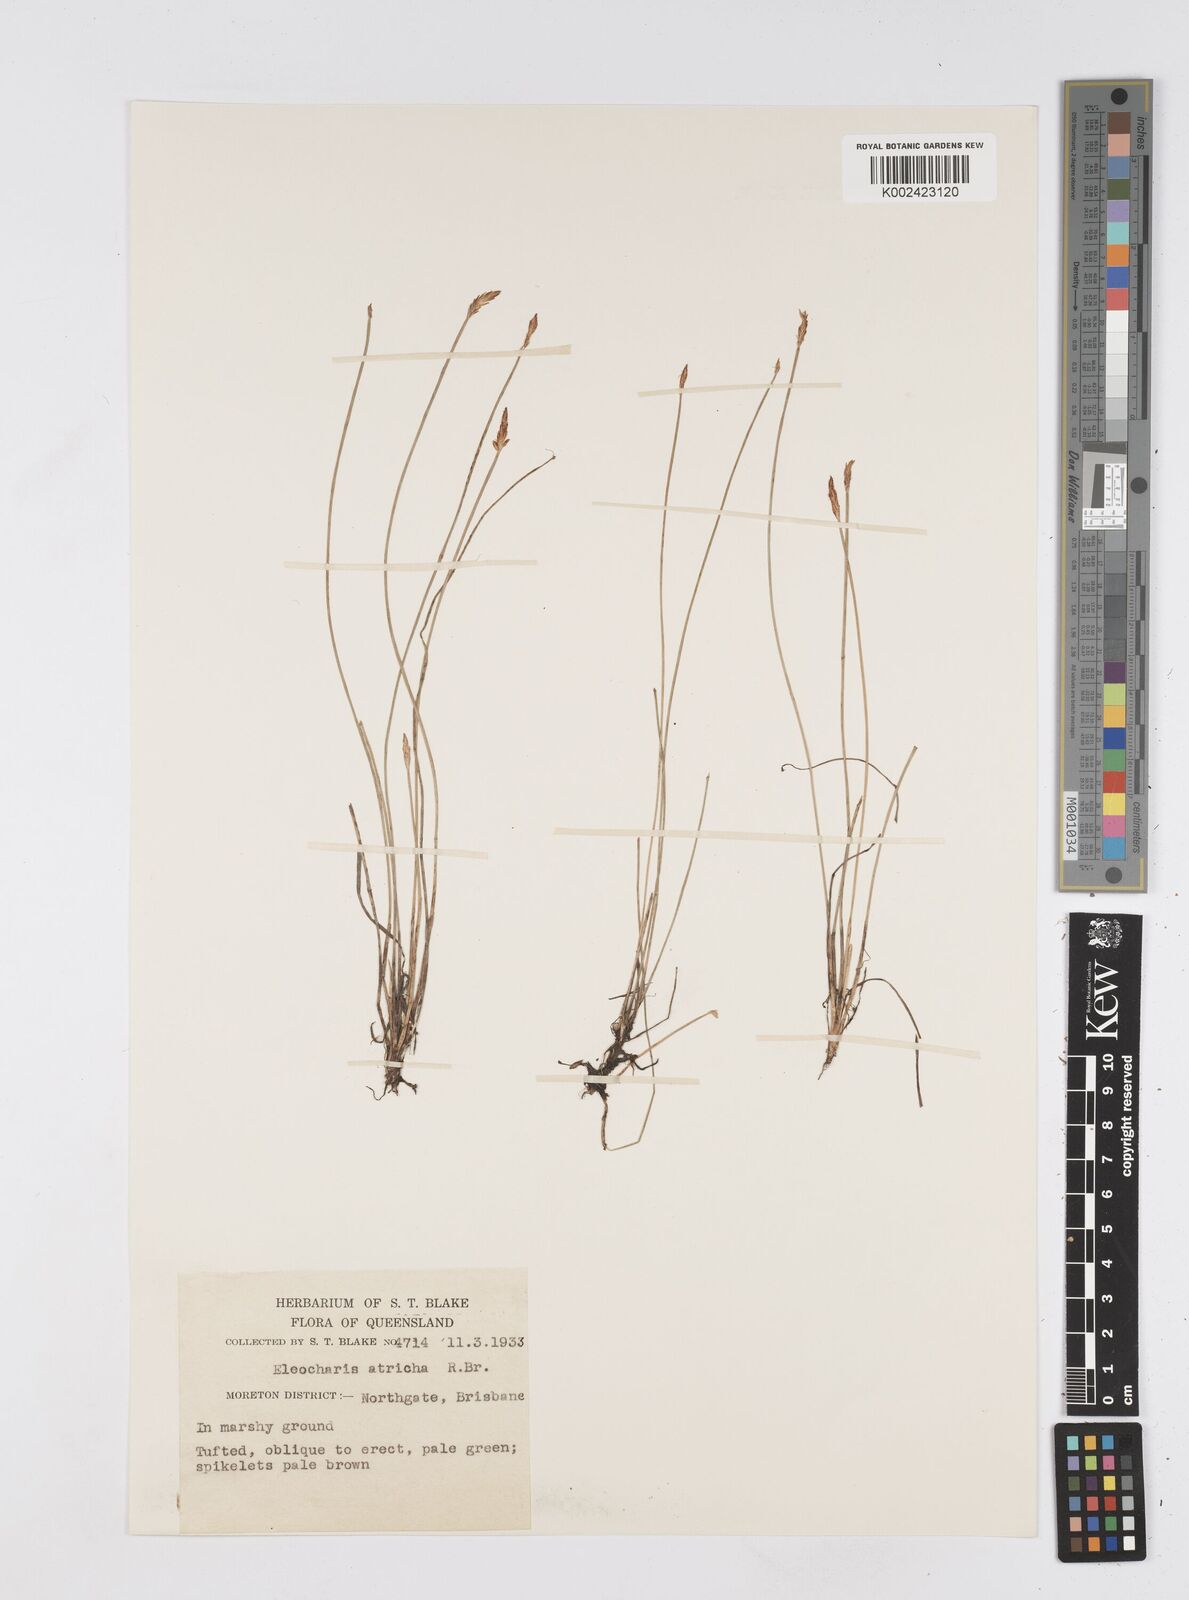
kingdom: Plantae
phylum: Tracheophyta
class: Liliopsida
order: Poales
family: Cyperaceae
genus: Eleocharis
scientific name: Eleocharis acicularis
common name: Needle spike-rush
